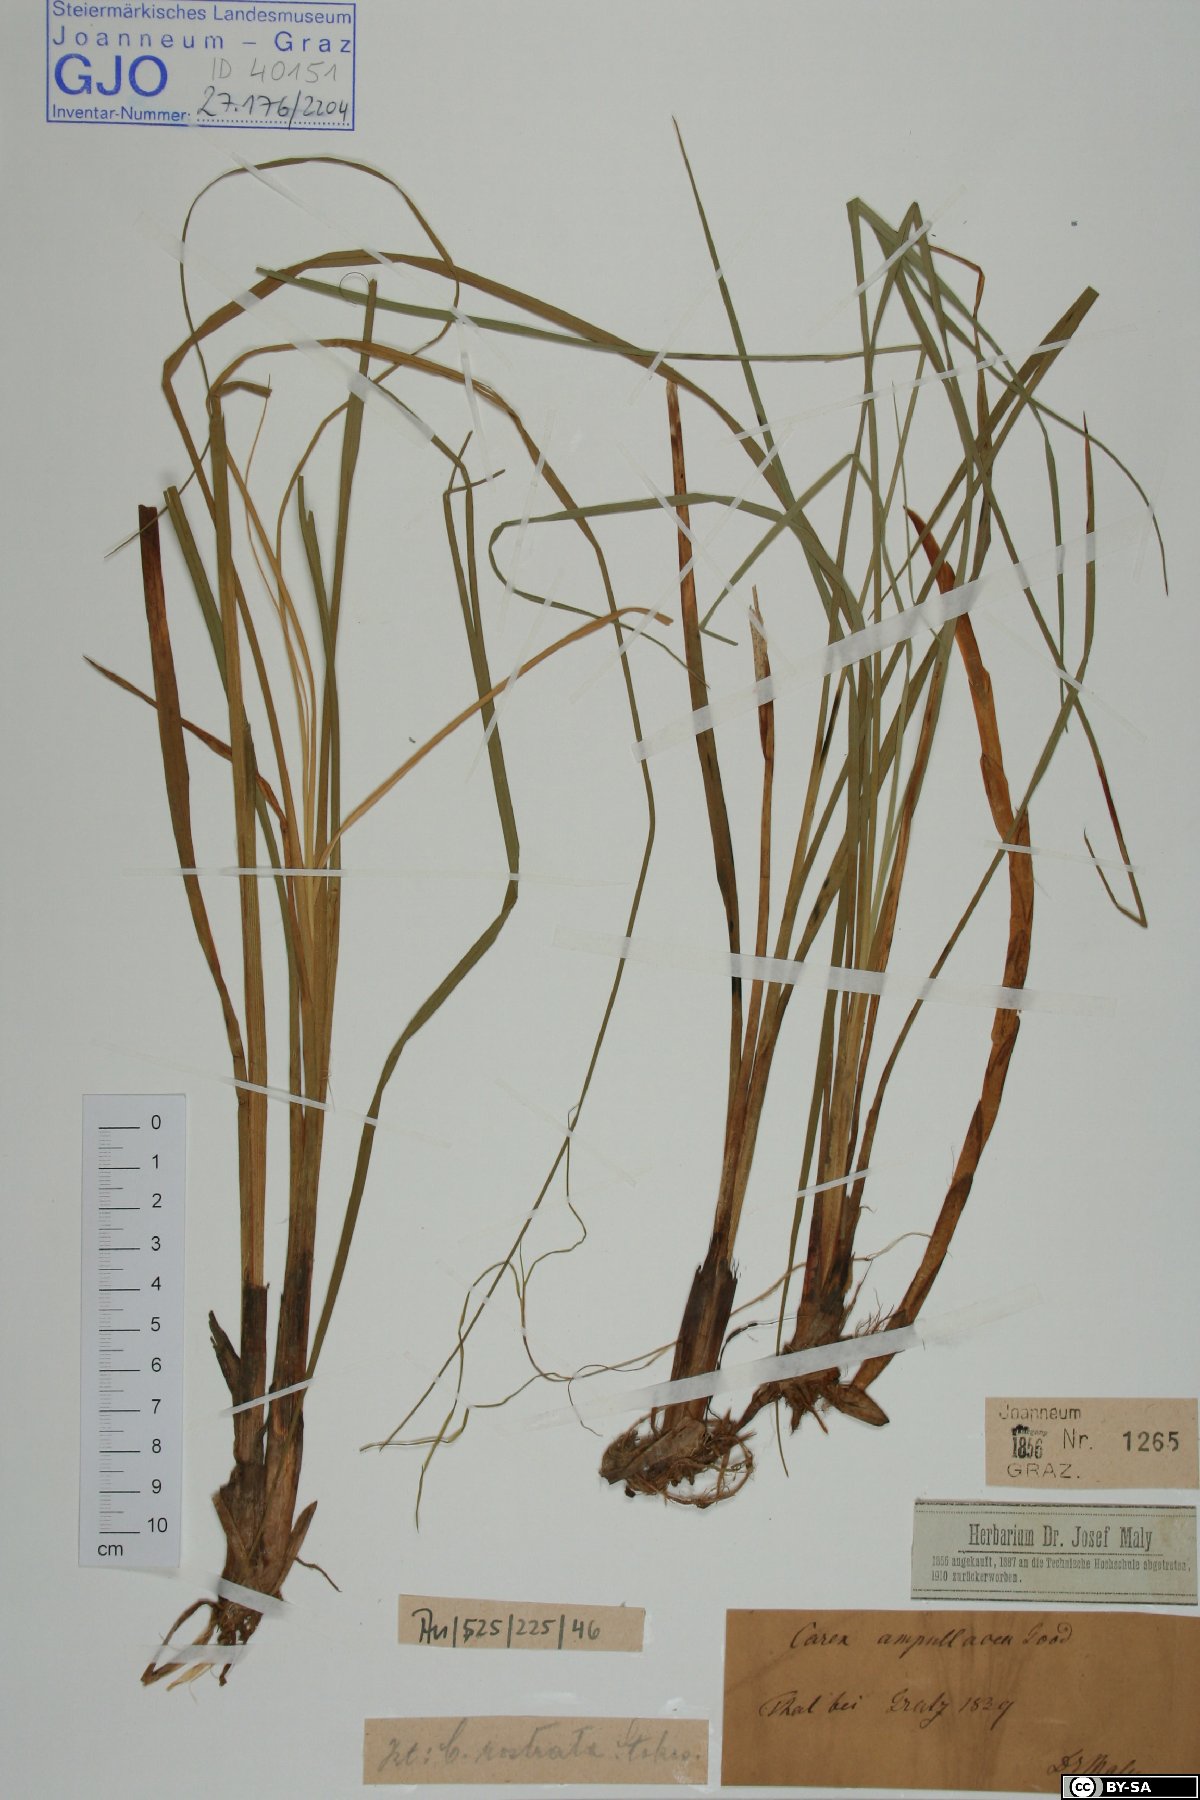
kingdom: Plantae
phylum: Tracheophyta
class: Liliopsida
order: Poales
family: Cyperaceae
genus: Carex
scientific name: Carex rostrata
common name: Bottle sedge
